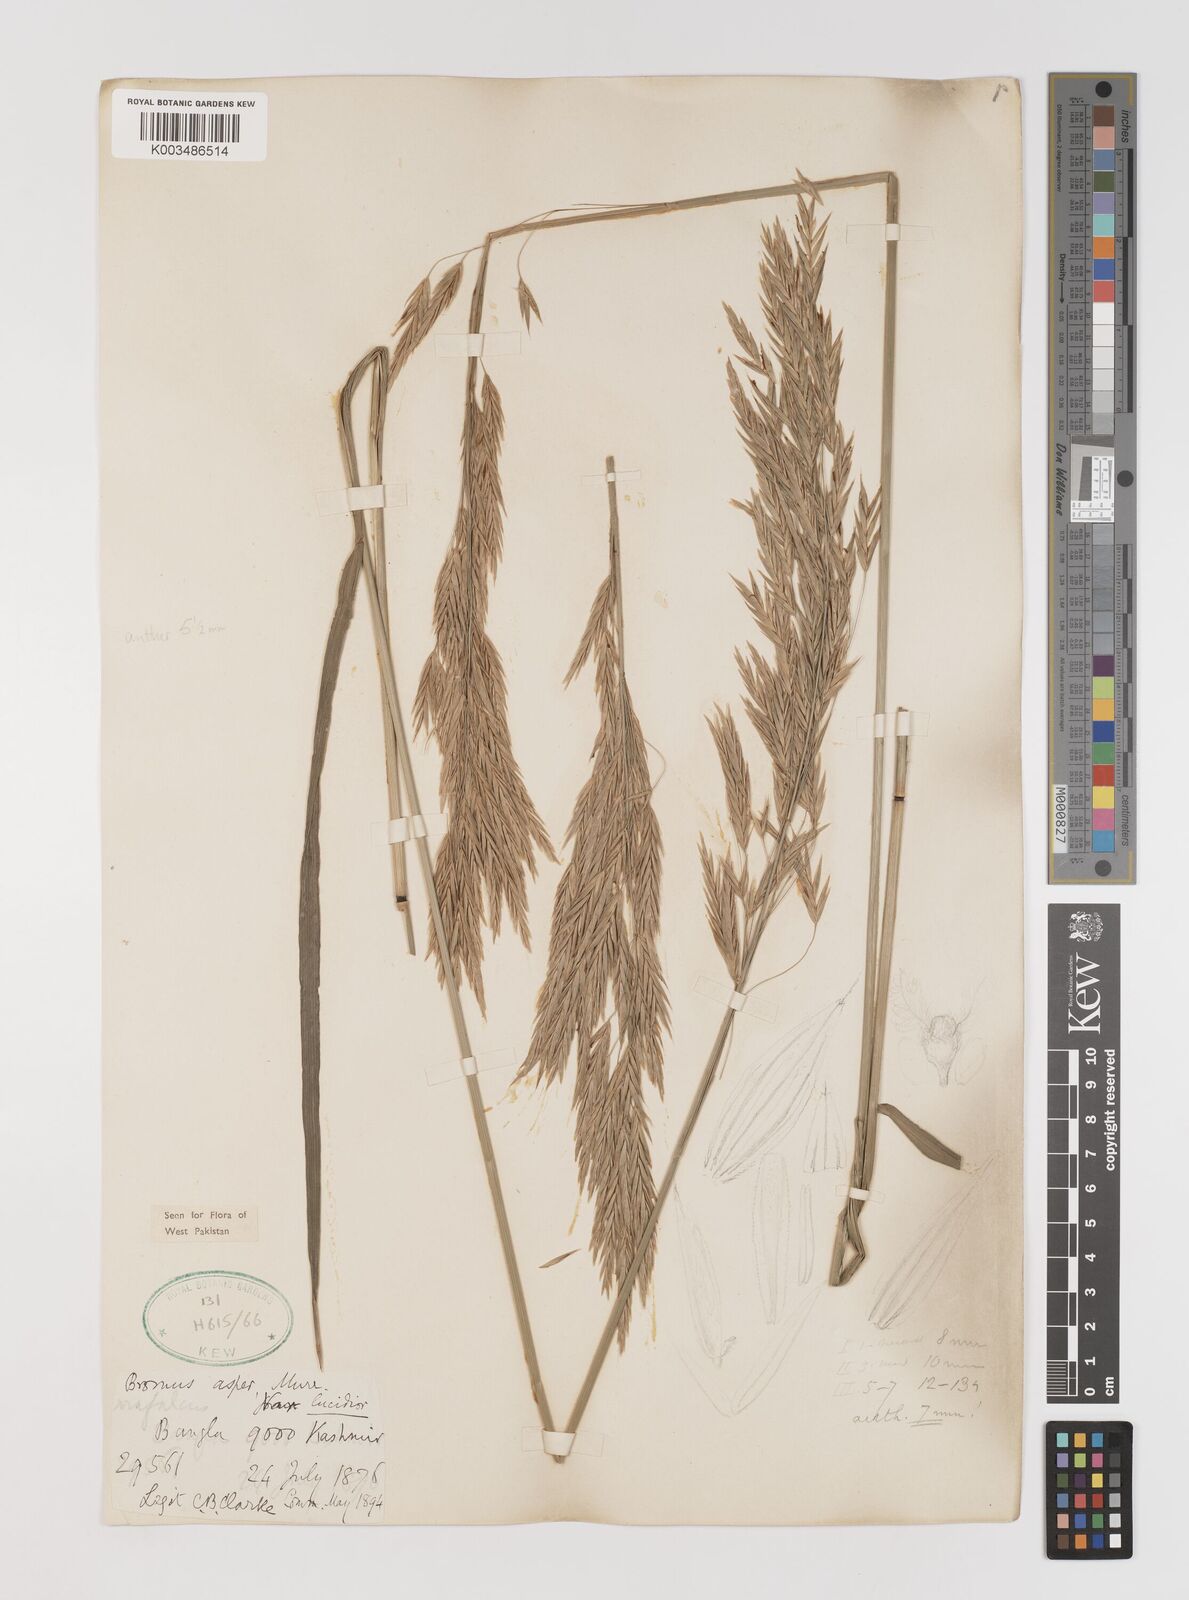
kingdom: Plantae
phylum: Tracheophyta
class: Liliopsida
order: Poales
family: Poaceae
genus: Bromus
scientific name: Bromus inermis
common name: Smooth brome
